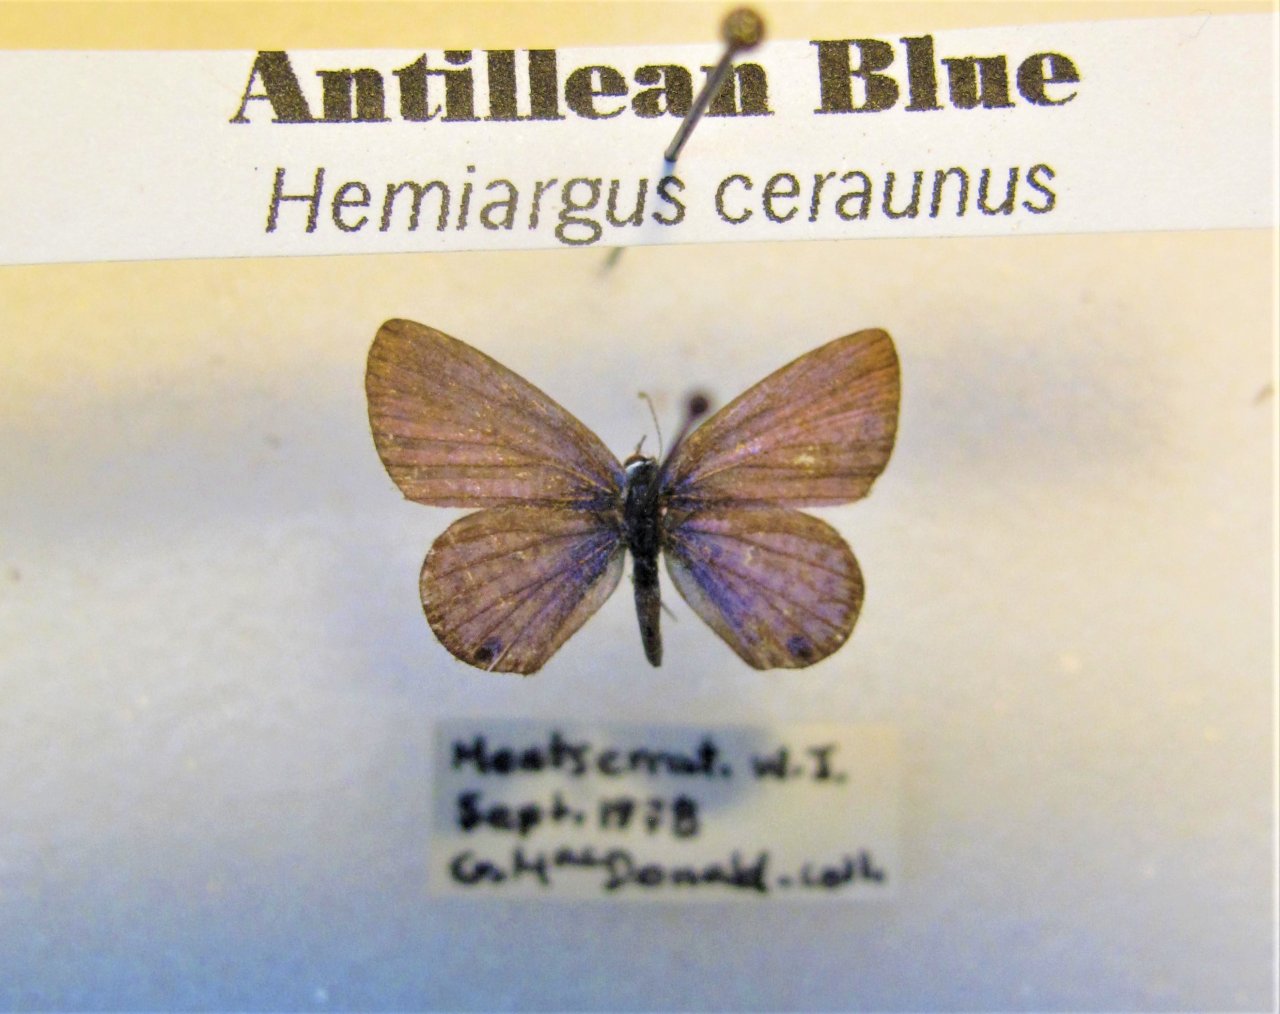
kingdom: Animalia
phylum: Arthropoda
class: Insecta
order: Lepidoptera
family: Lycaenidae
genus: Hemiargus
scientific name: Hemiargus ceraunus
